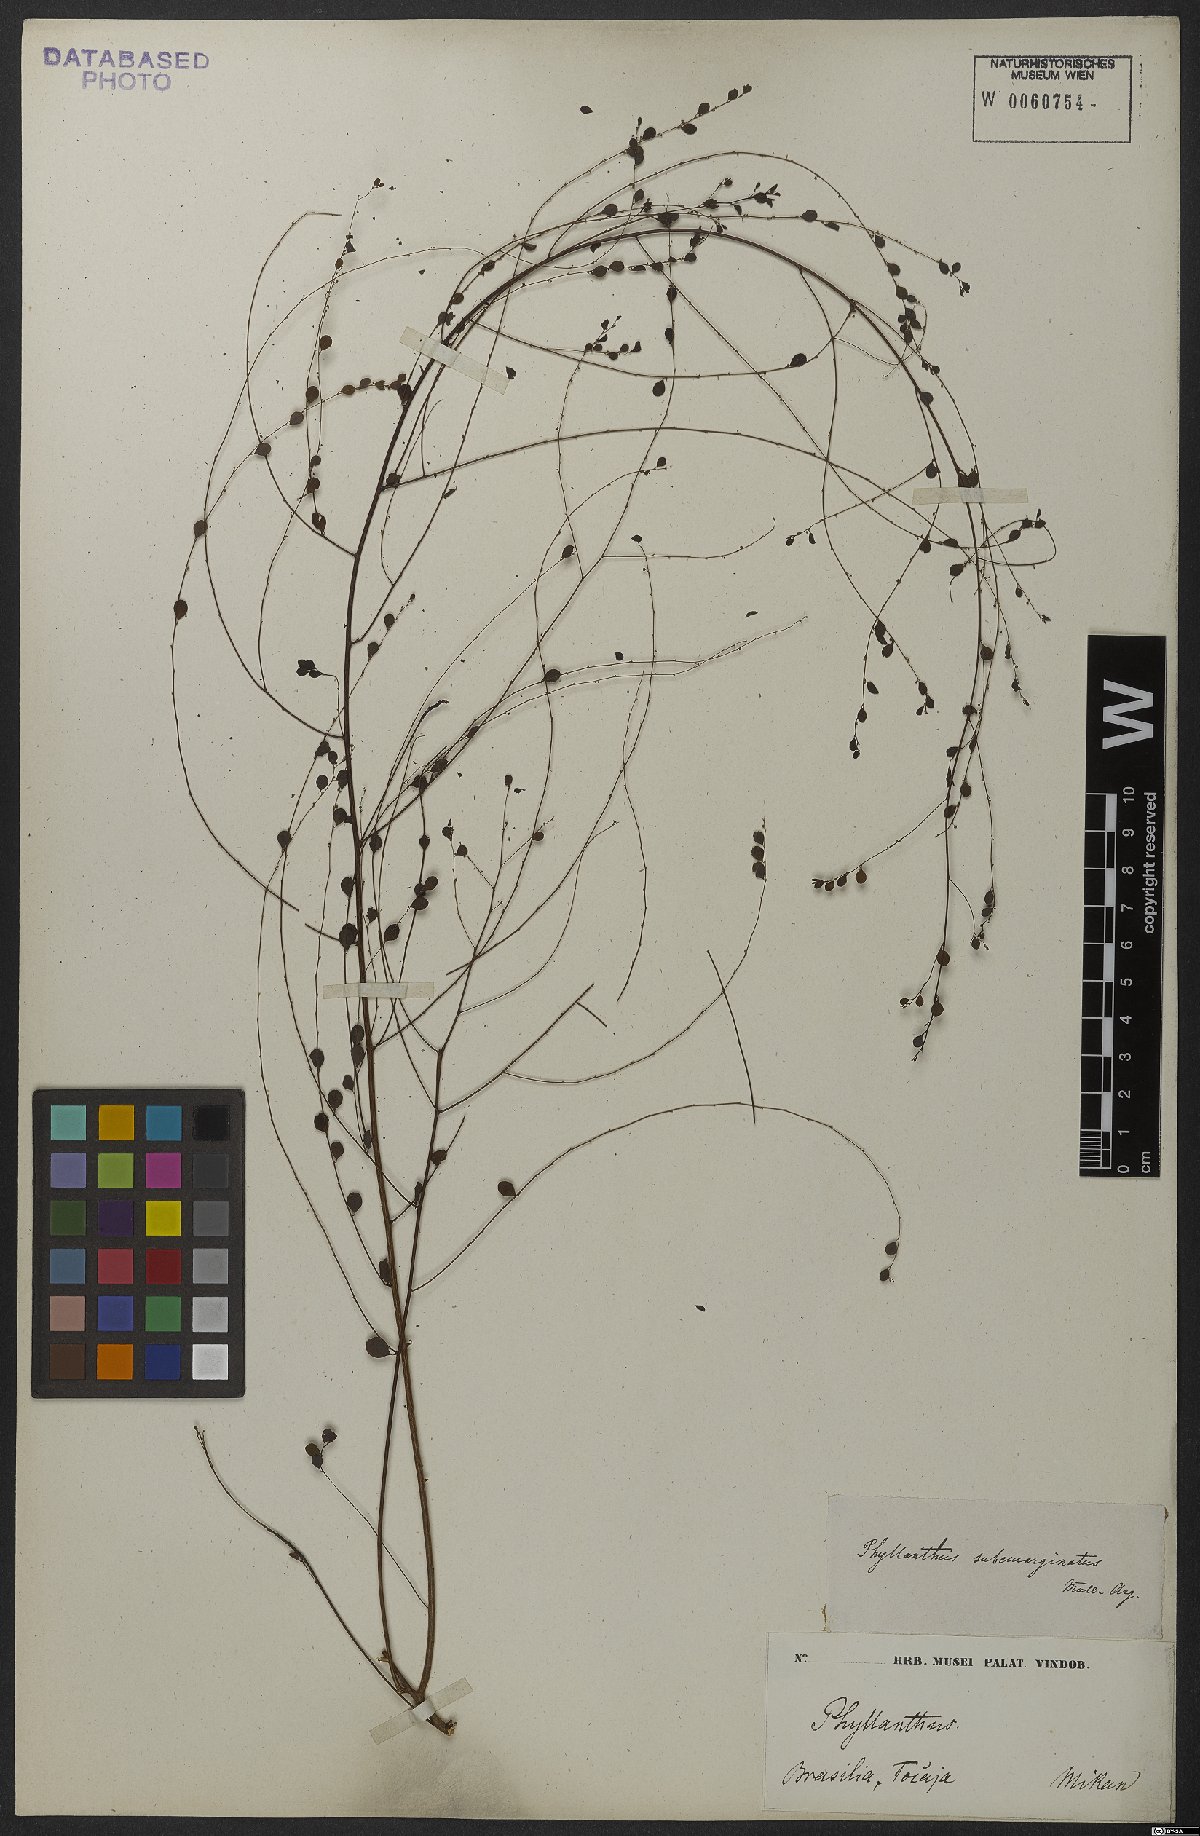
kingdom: Plantae
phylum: Tracheophyta
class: Magnoliopsida
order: Malpighiales
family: Phyllanthaceae
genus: Phyllanthus
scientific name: Phyllanthus subemarginatus
